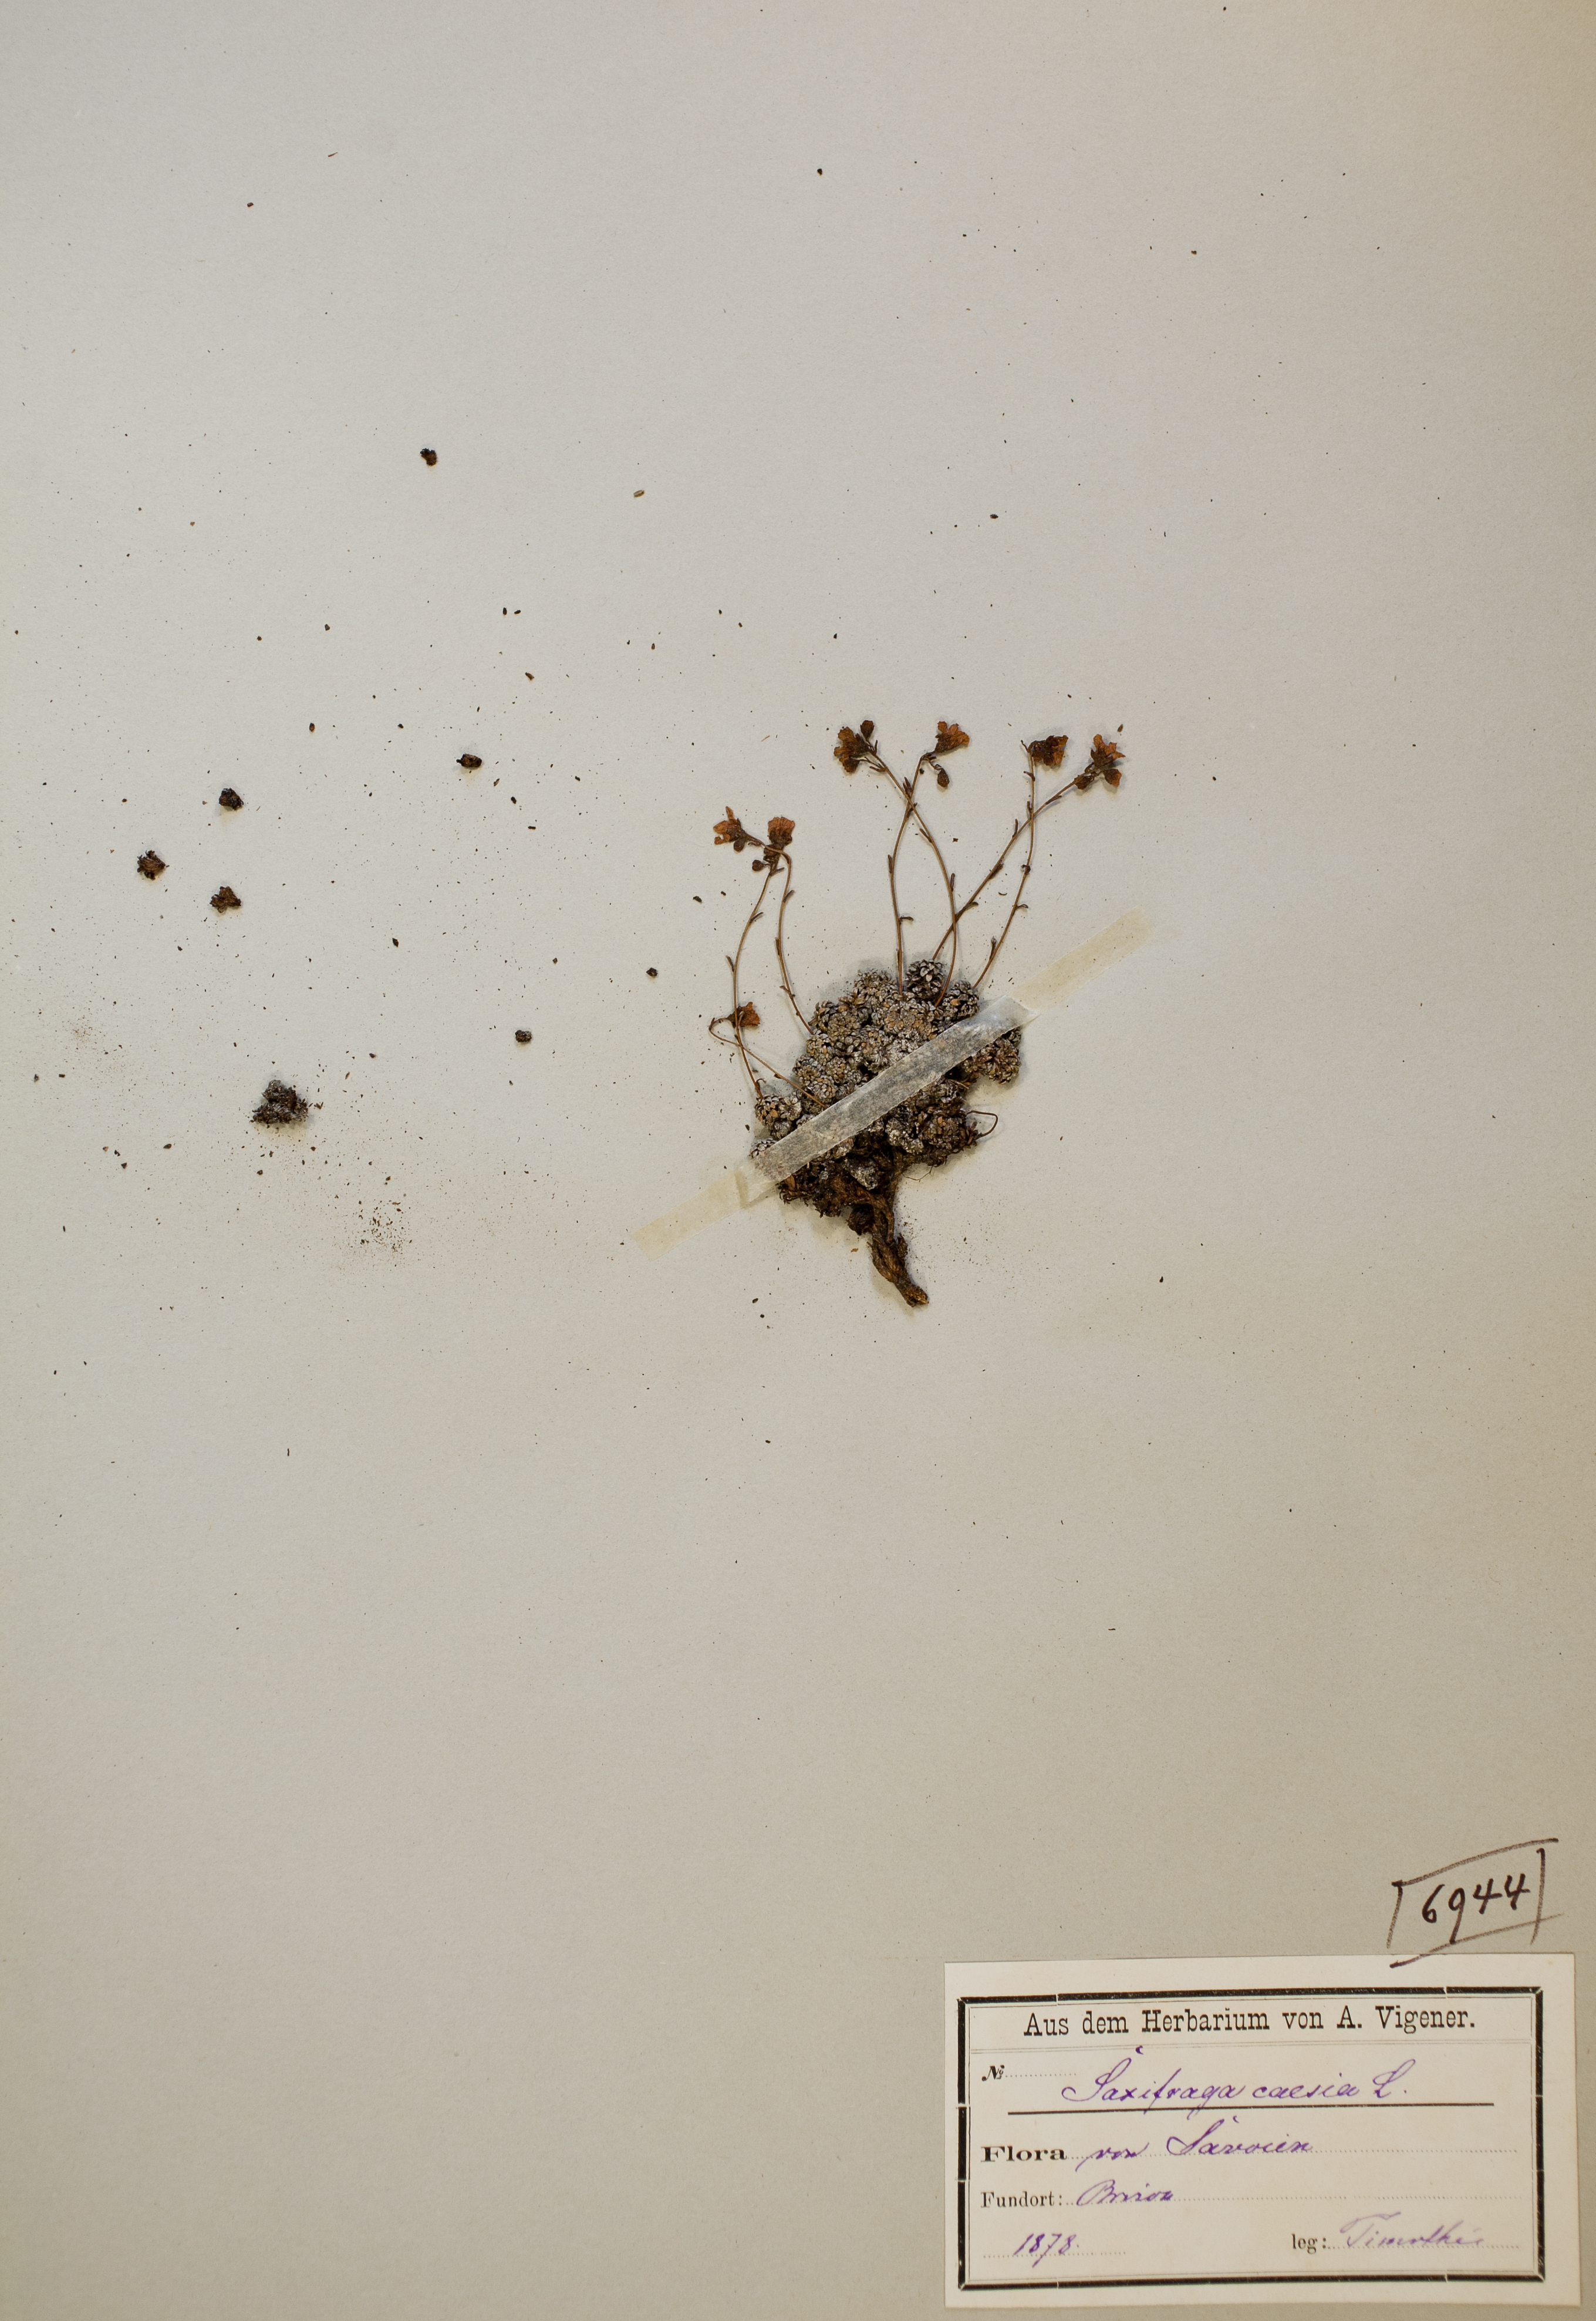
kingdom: Plantae
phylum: Tracheophyta
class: Magnoliopsida
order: Saxifragales
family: Saxifragaceae
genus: Saxifraga
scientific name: Saxifraga caesia
